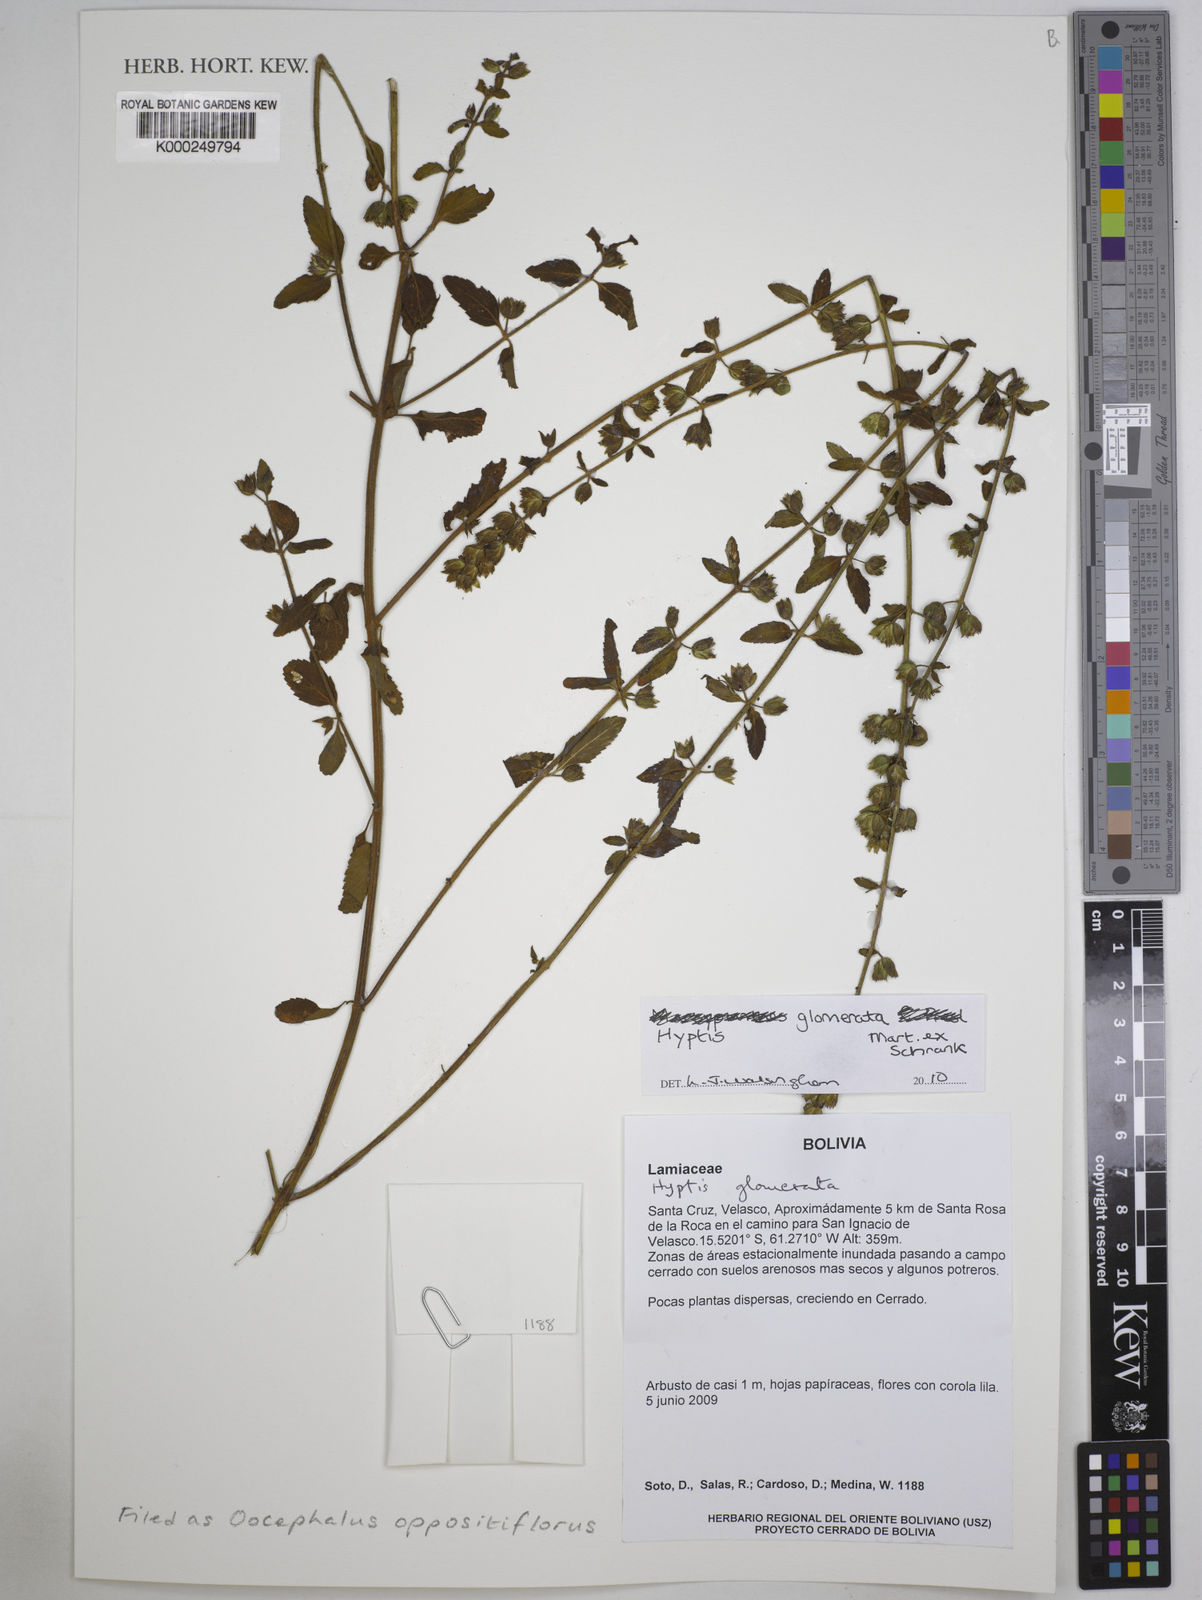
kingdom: Plantae
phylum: Tracheophyta
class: Magnoliopsida
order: Lamiales
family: Lamiaceae
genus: Oocephalus
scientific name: Oocephalus oppositiflorus
